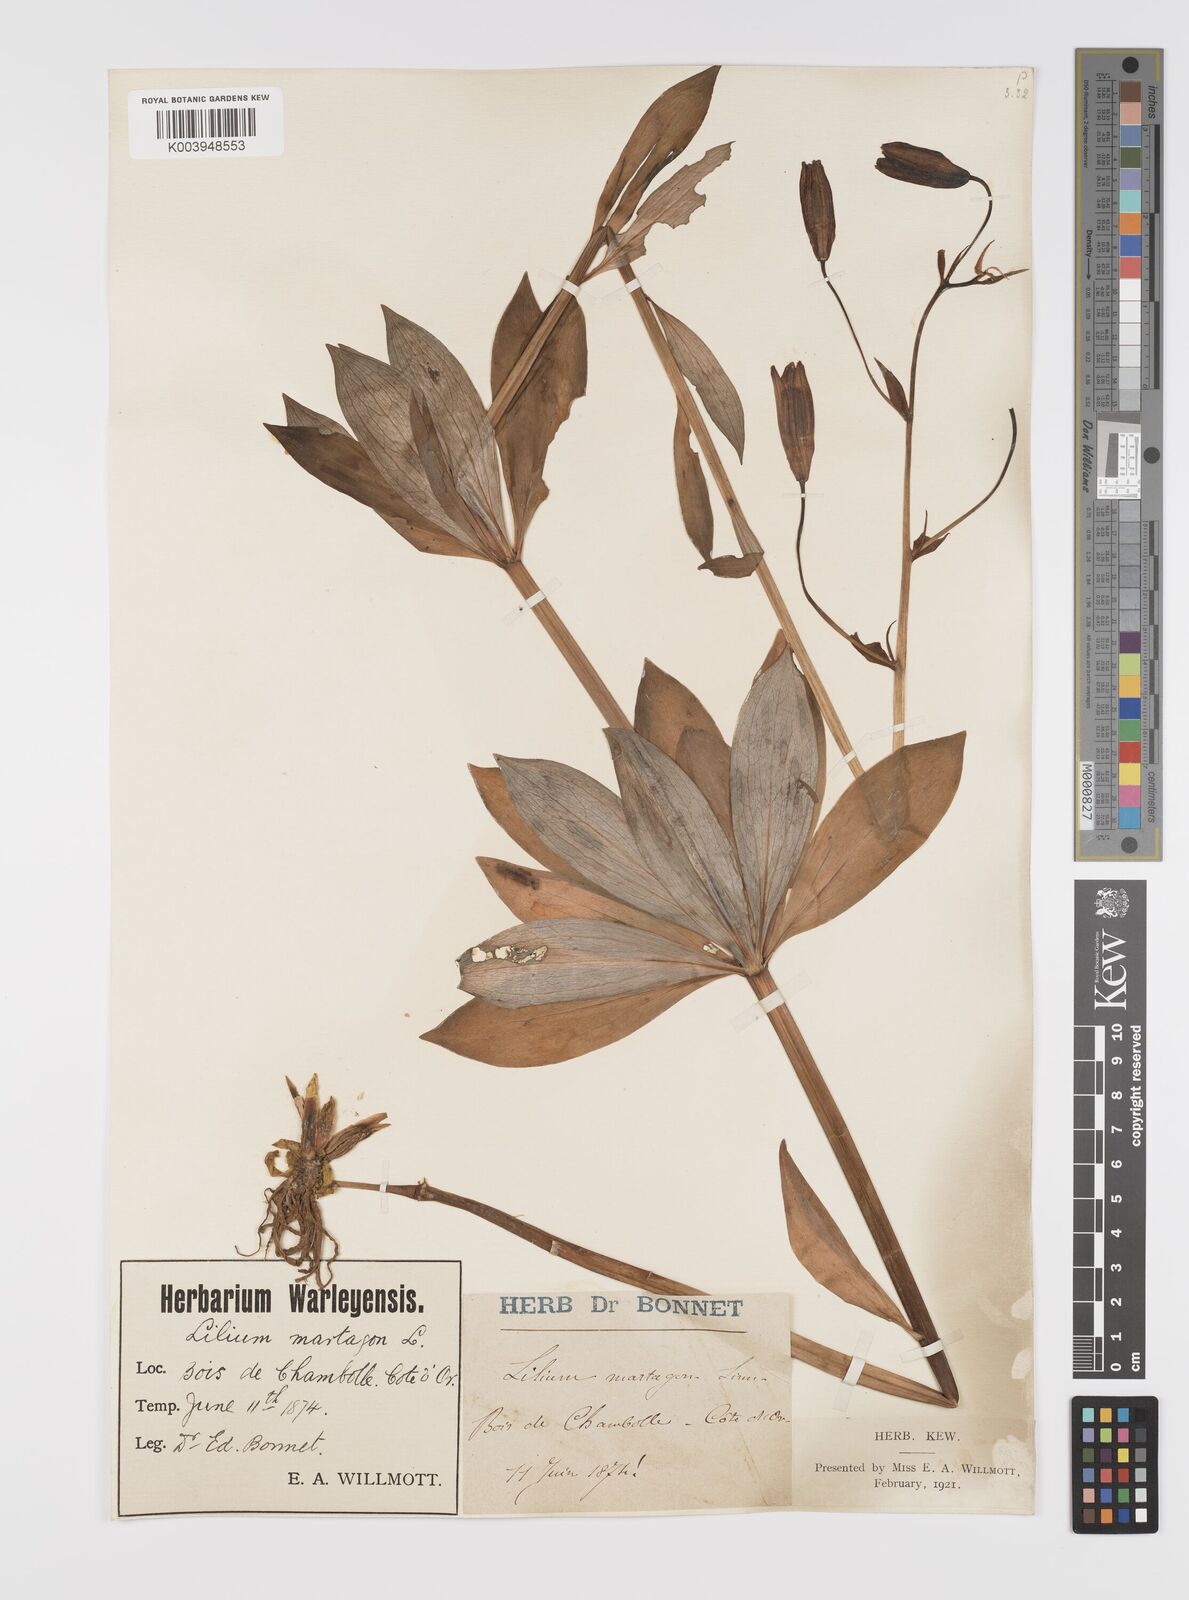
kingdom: Plantae
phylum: Tracheophyta
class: Liliopsida
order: Liliales
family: Liliaceae
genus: Lilium
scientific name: Lilium martagon
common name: Martagon lily
